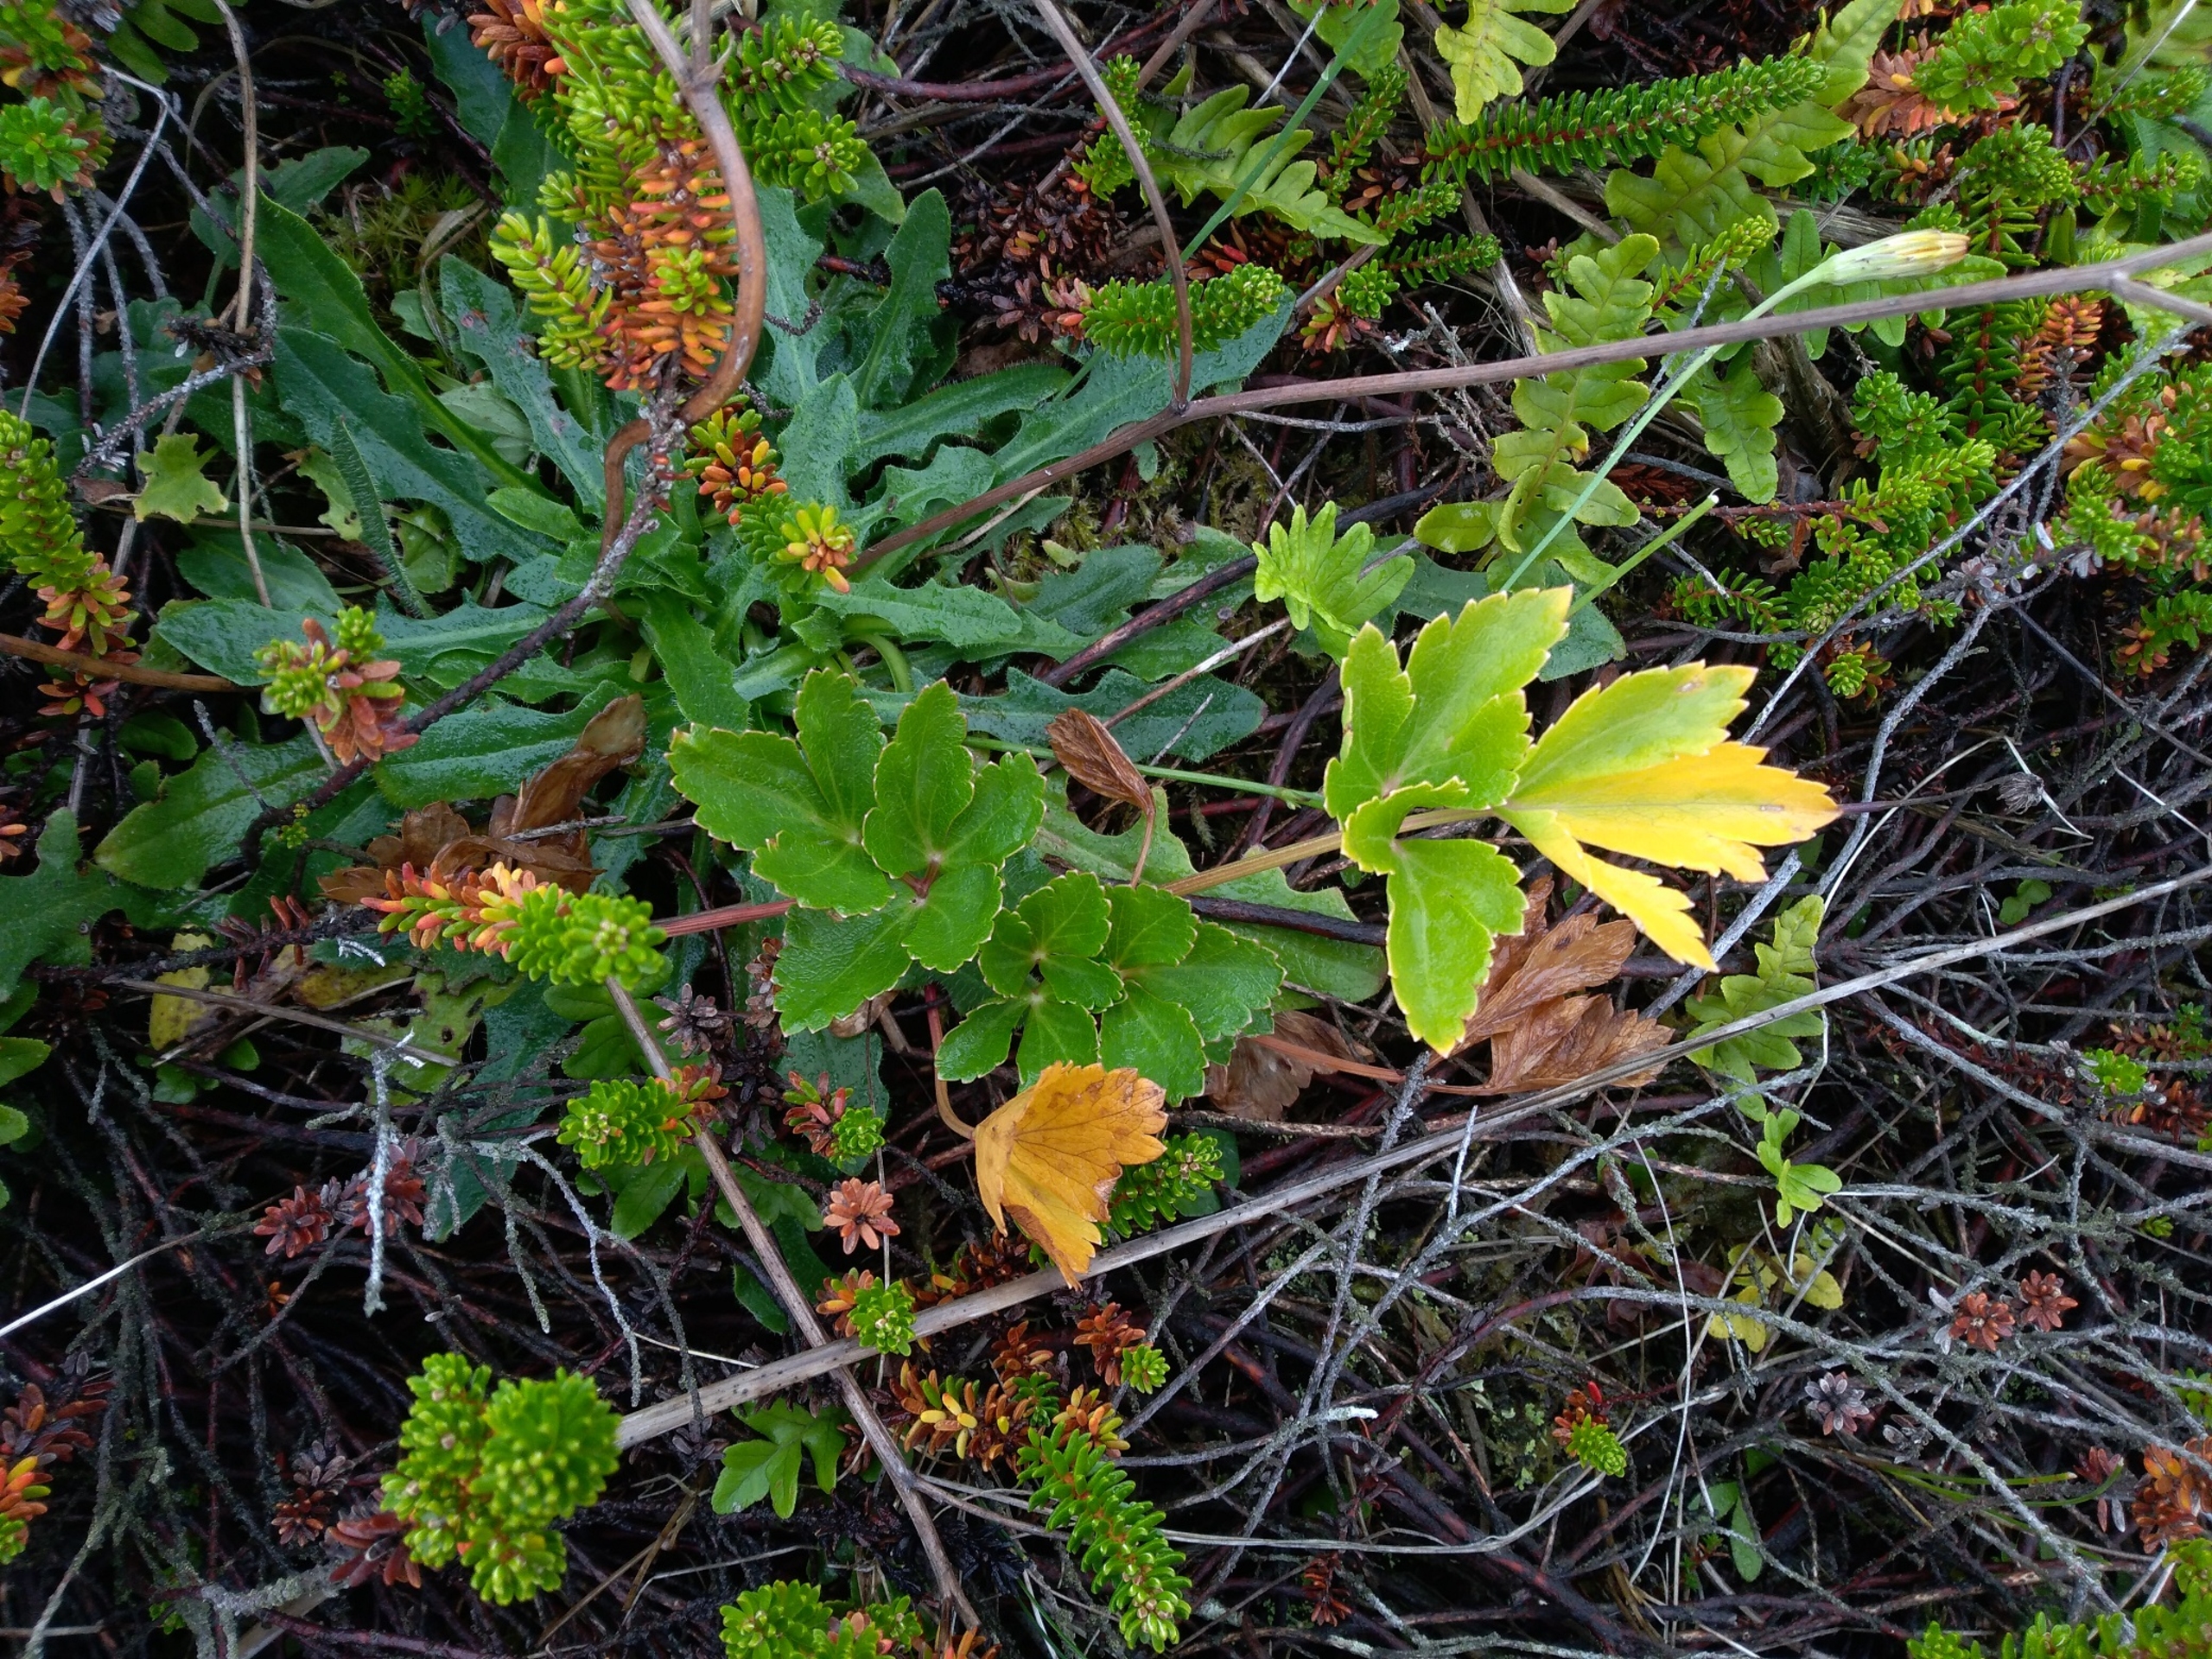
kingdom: Plantae
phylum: Tracheophyta
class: Magnoliopsida
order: Apiales
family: Apiaceae
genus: Ligusticum
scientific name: Ligusticum scothicum
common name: Skotsk lostilk
